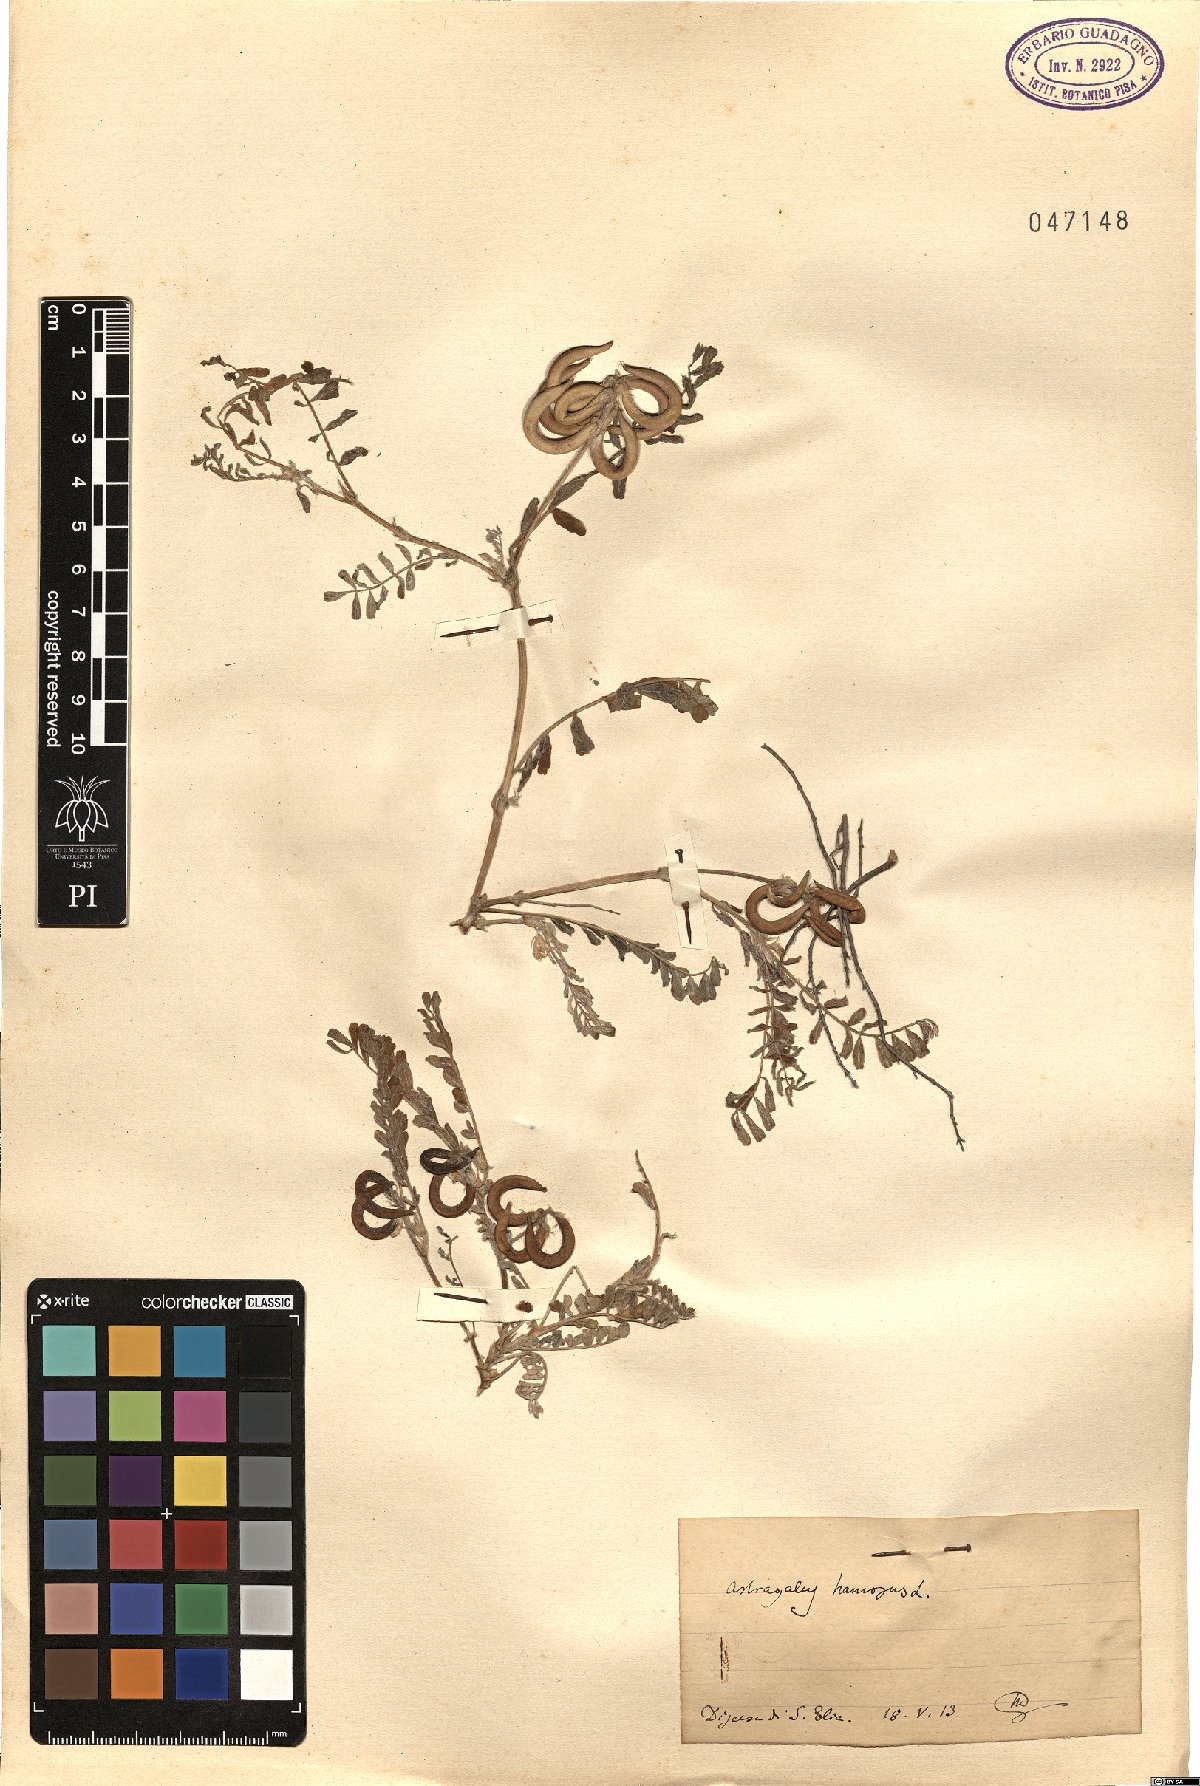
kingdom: Plantae
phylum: Tracheophyta
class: Magnoliopsida
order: Fabales
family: Fabaceae
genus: Astragalus
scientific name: Astragalus hamosus
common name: European milkvetch
